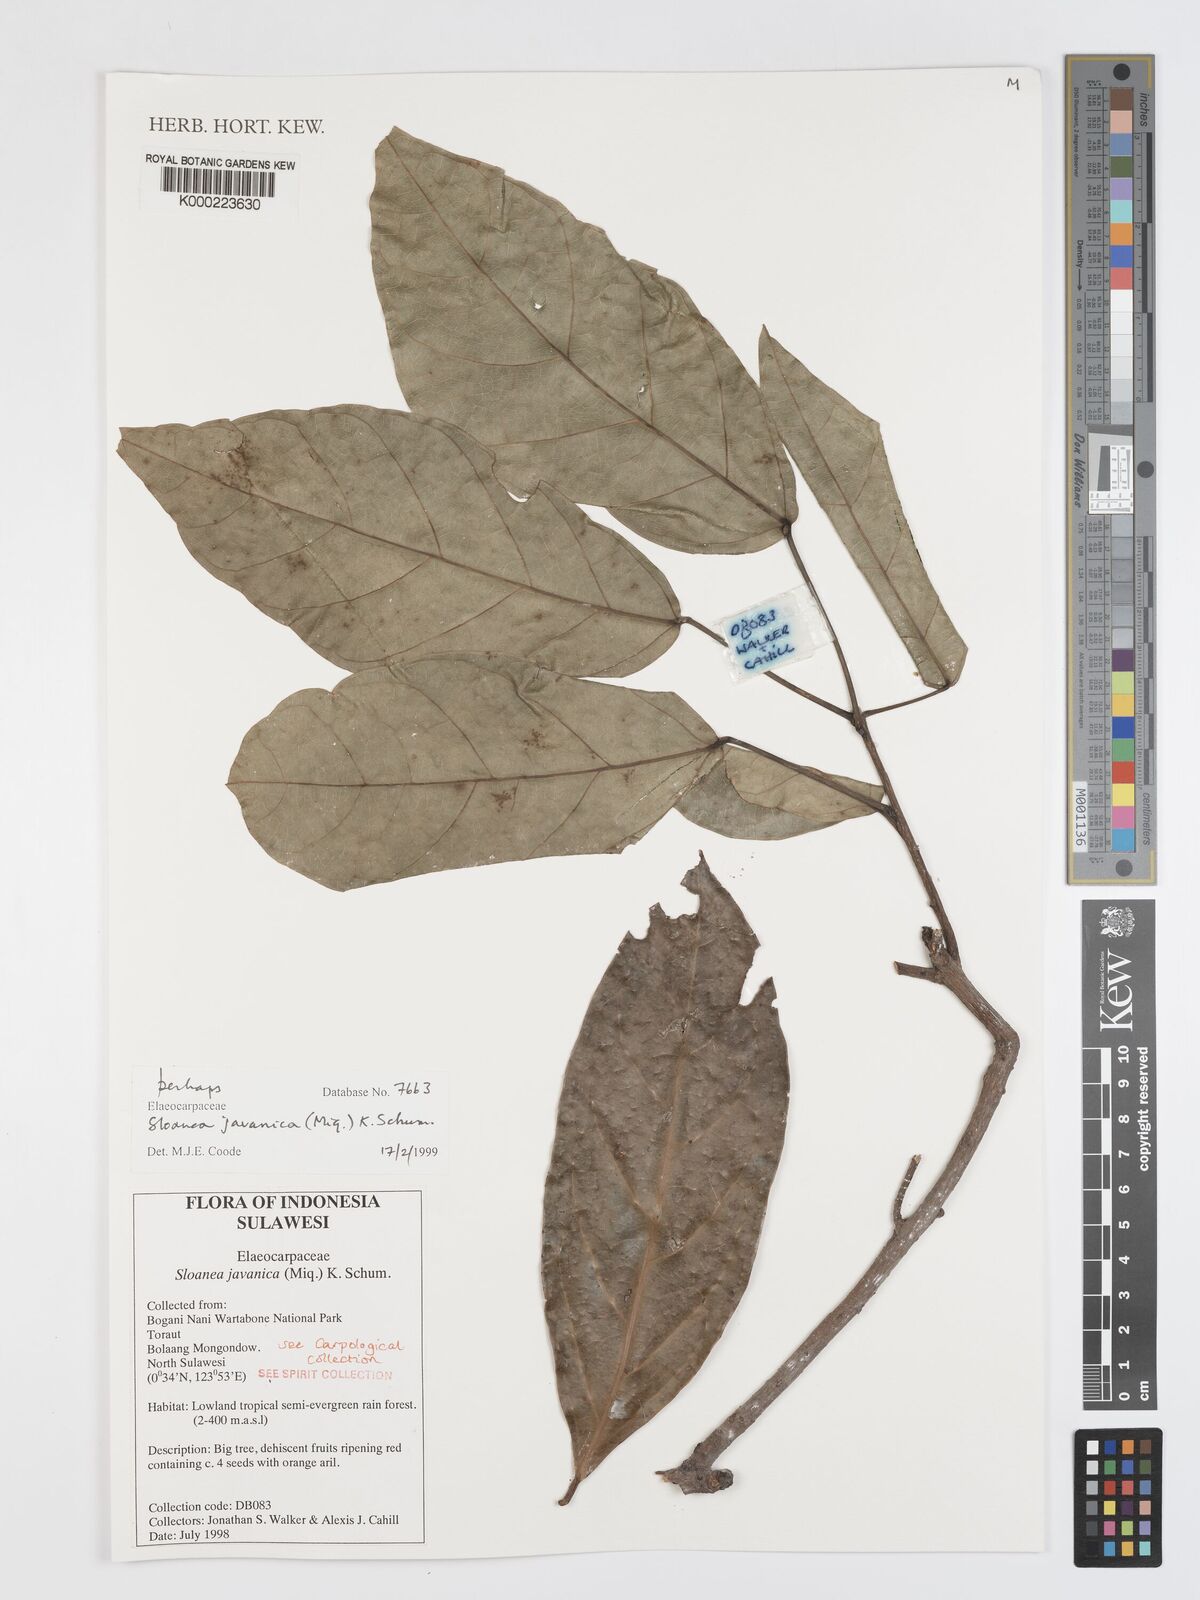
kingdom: Plantae
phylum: Tracheophyta
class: Magnoliopsida
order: Oxalidales
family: Elaeocarpaceae
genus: Sloanea
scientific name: Sloanea
